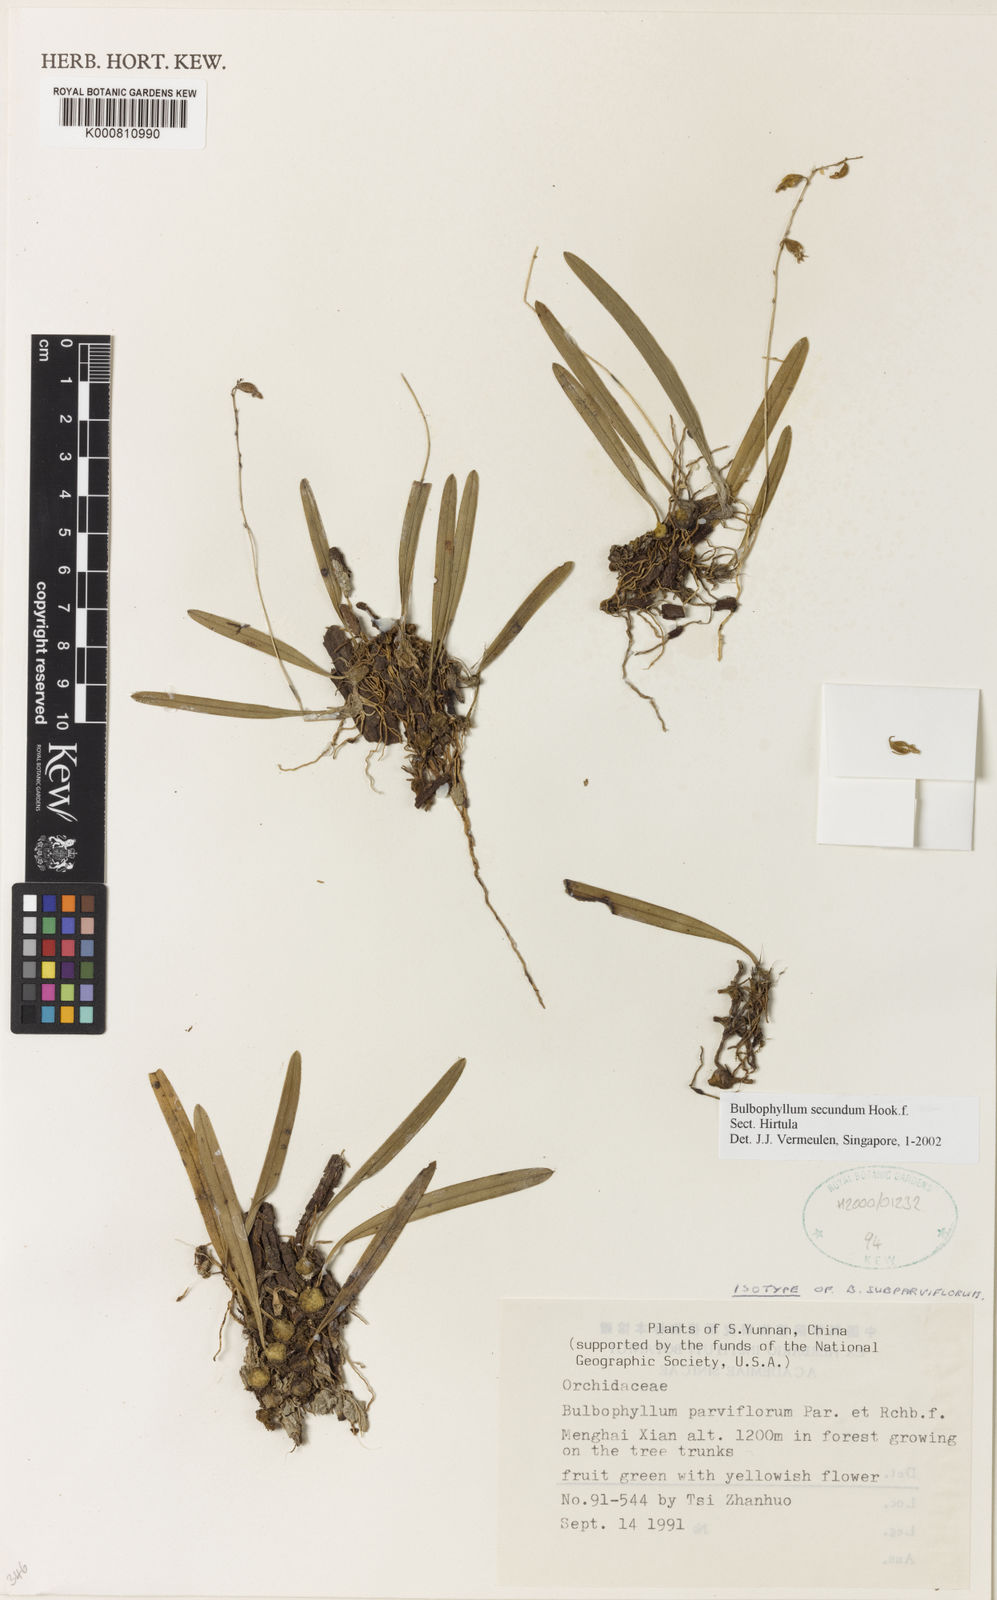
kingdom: Plantae
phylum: Tracheophyta
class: Liliopsida
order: Asparagales
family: Orchidaceae
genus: Bulbophyllum
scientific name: Bulbophyllum secundum
